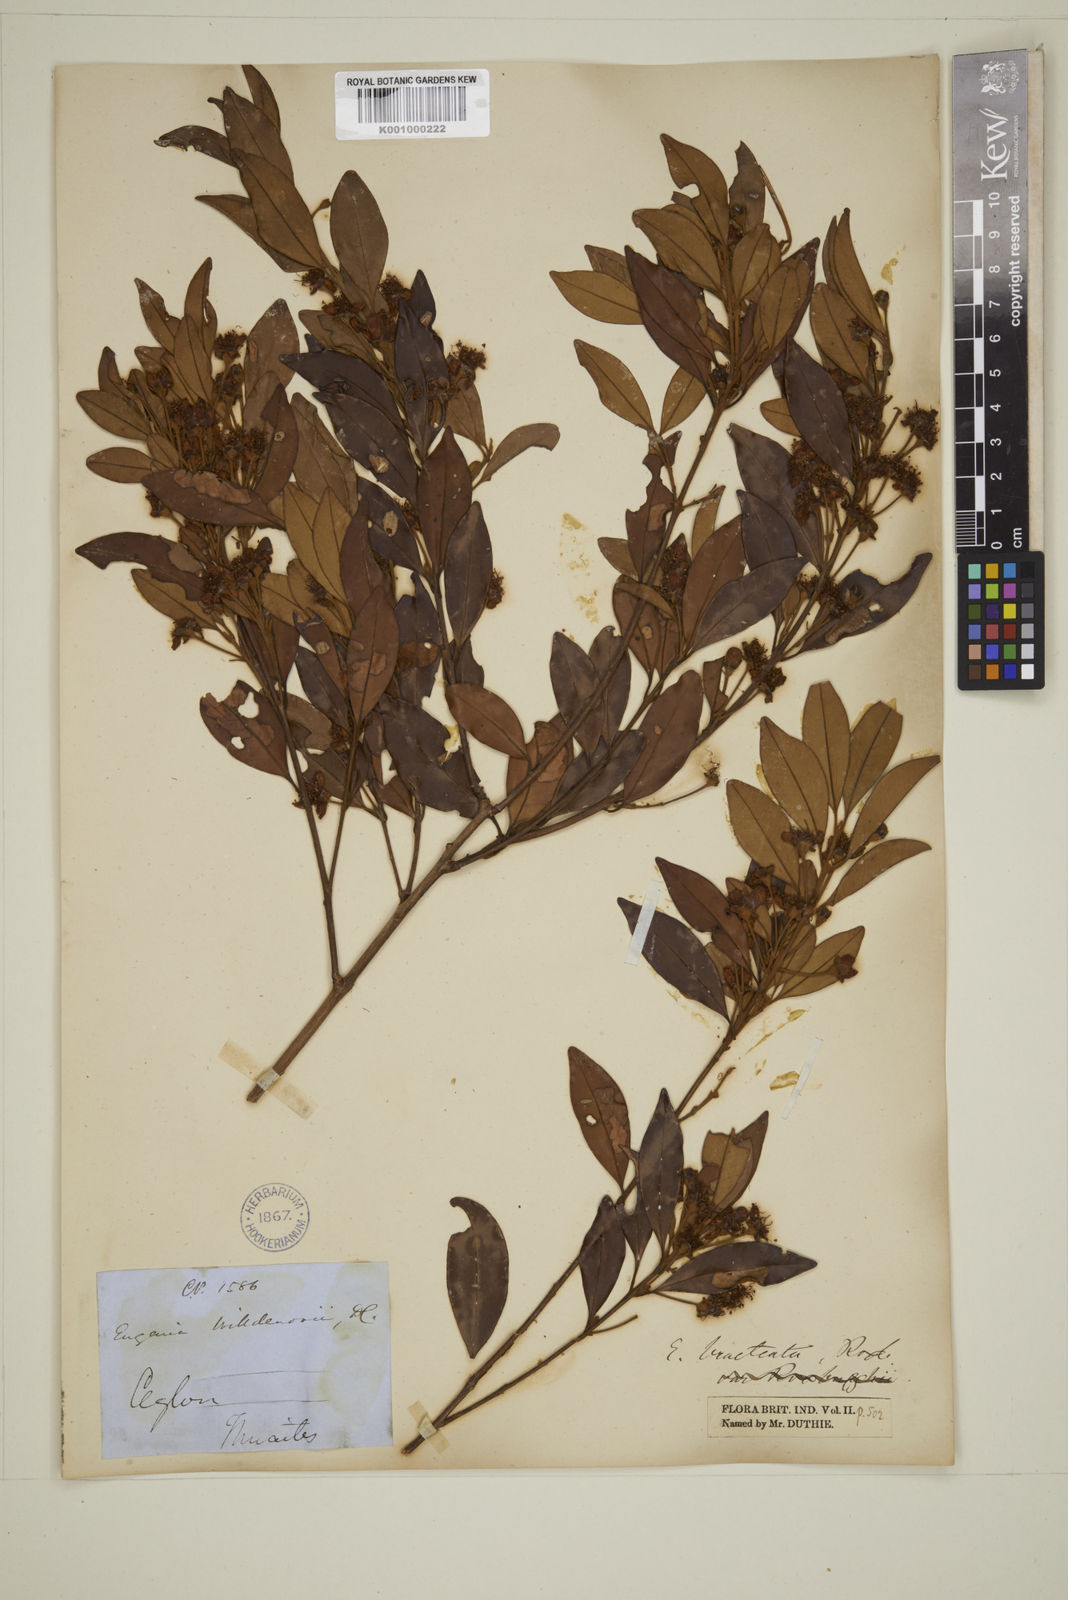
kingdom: Plantae
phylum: Tracheophyta
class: Magnoliopsida
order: Myrtales
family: Myrtaceae
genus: Eugenia
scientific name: Eugenia pseudopsidium
